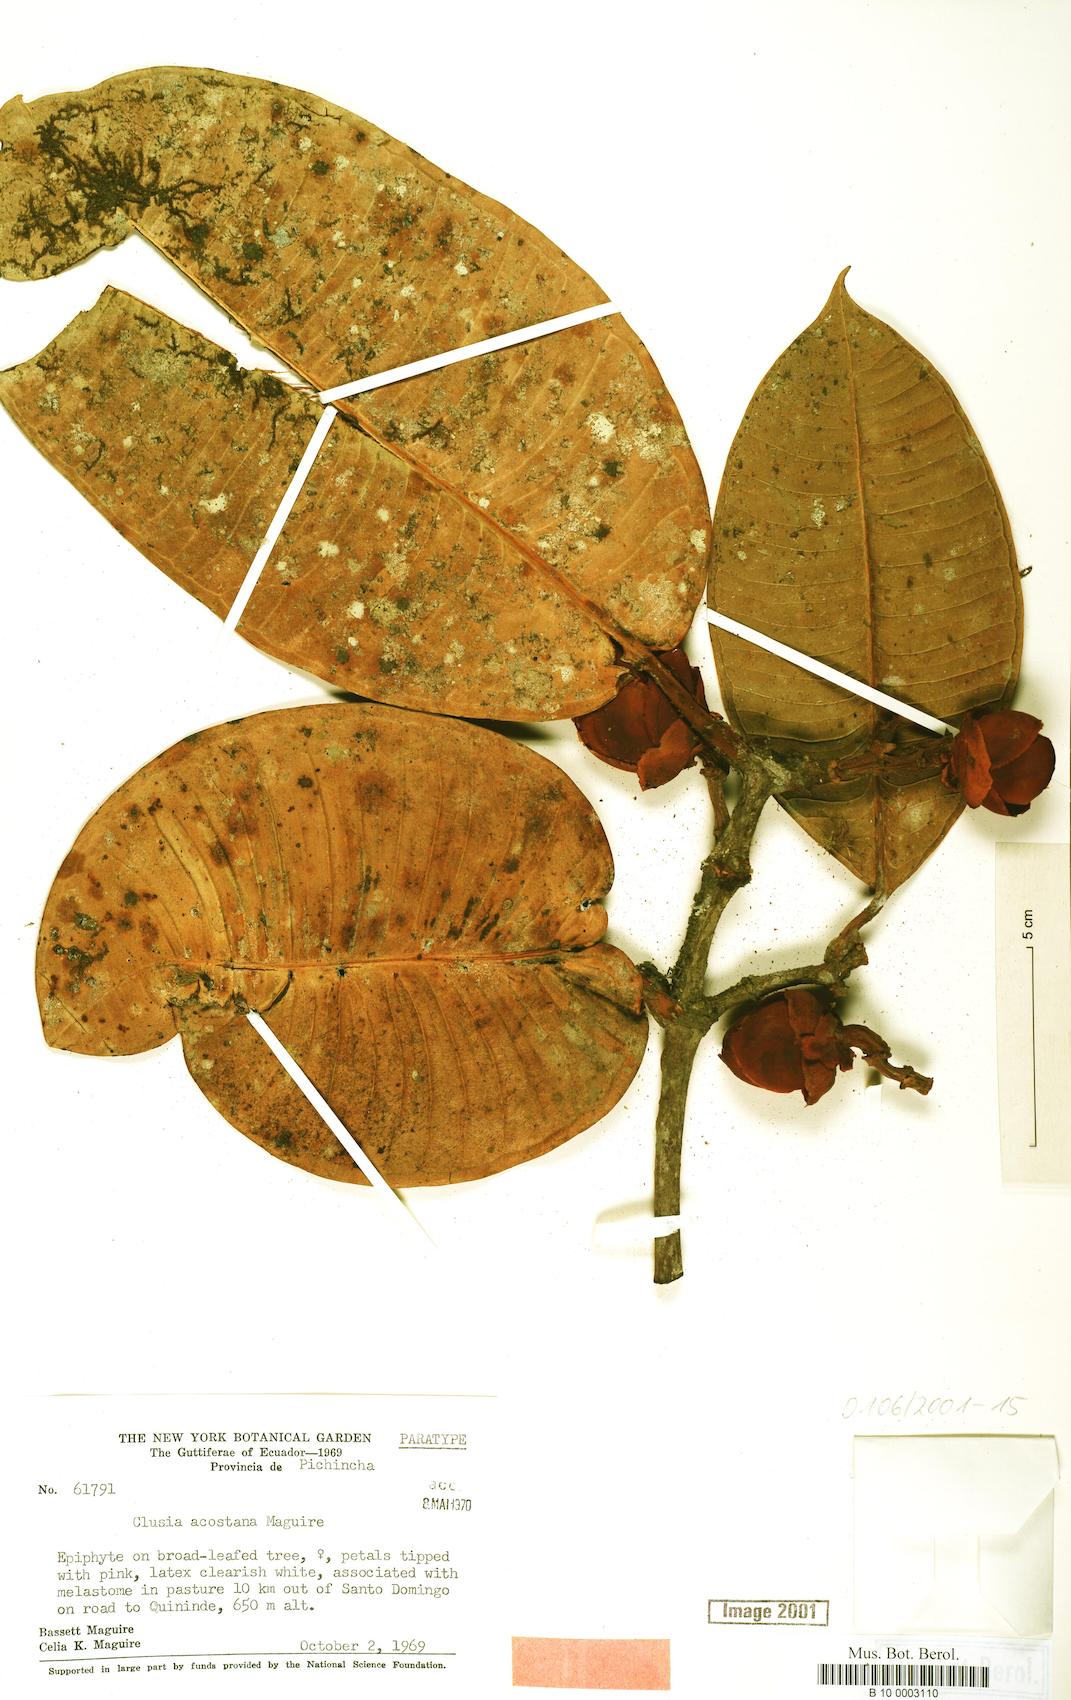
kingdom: Plantae
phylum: Tracheophyta
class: Magnoliopsida
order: Malpighiales
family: Clusiaceae
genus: Clusia
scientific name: Clusia acostana
